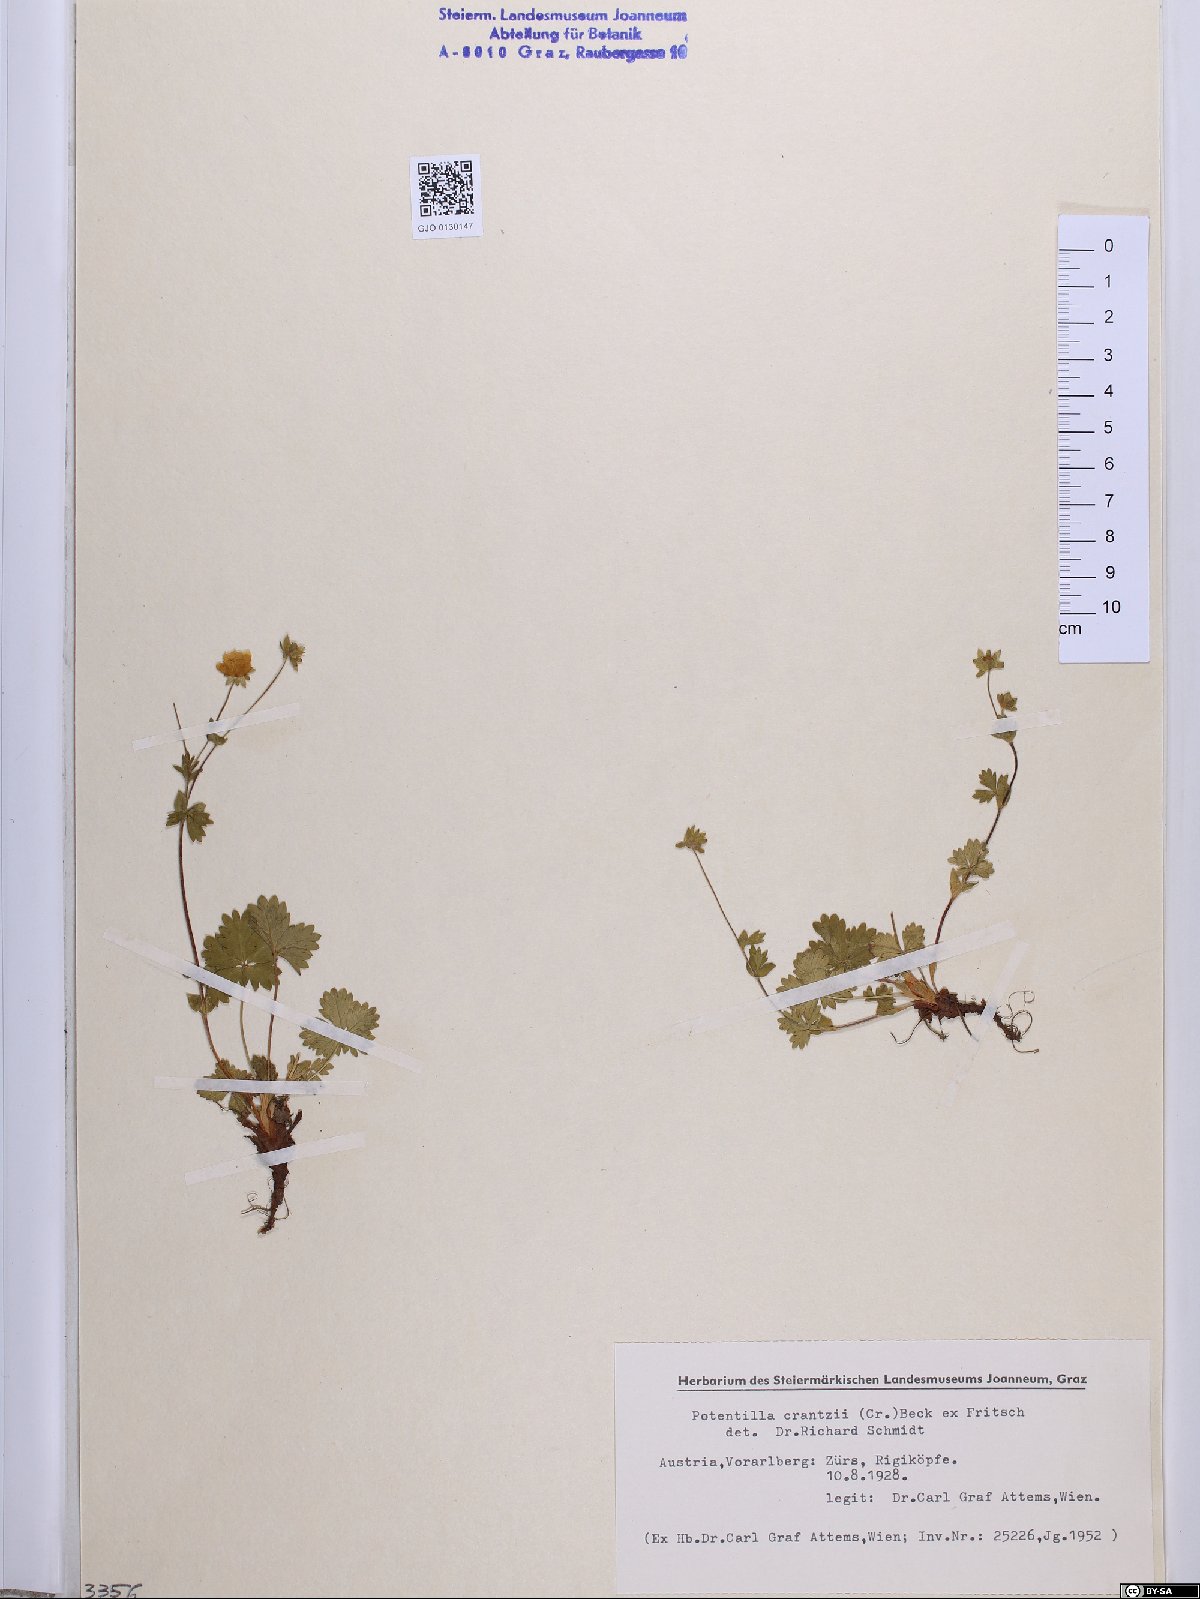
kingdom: Plantae
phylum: Tracheophyta
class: Magnoliopsida
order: Rosales
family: Rosaceae
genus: Potentilla
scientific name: Potentilla crantzii
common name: Alpine cinquefoil
